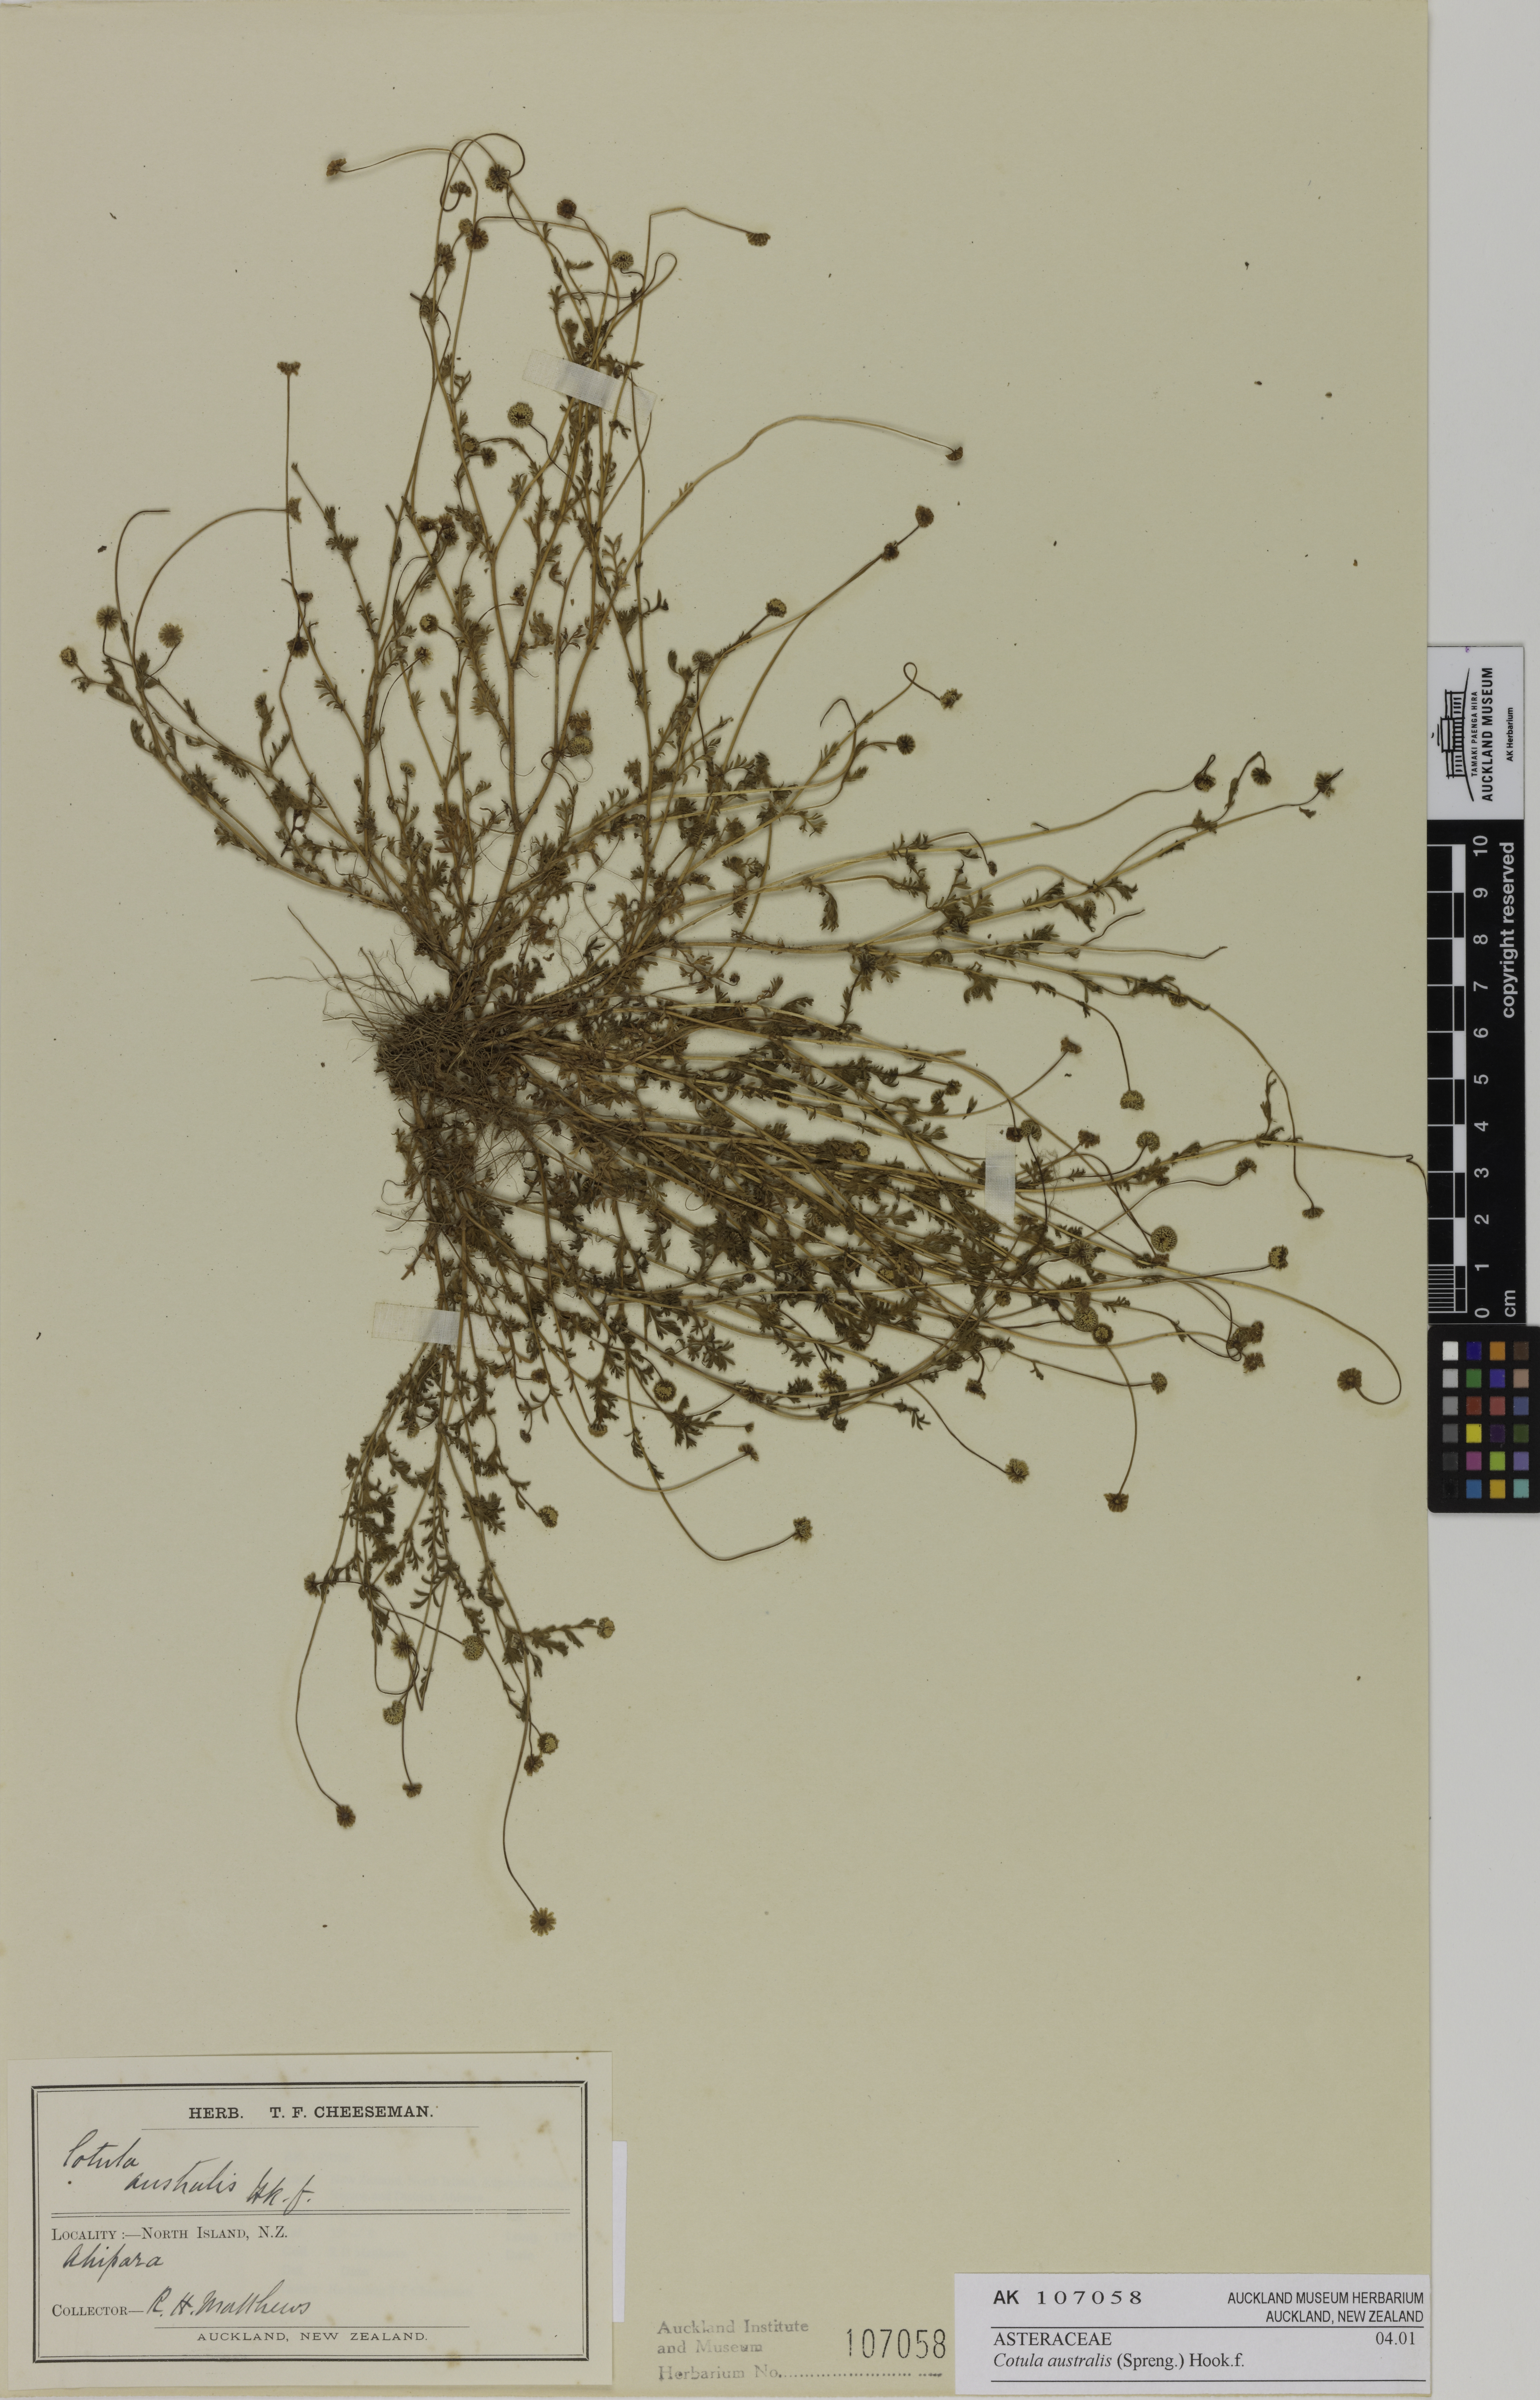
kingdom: Plantae
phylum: Tracheophyta
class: Magnoliopsida
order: Asterales
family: Asteraceae
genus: Cotula
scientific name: Cotula australis
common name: Australian waterbuttons
